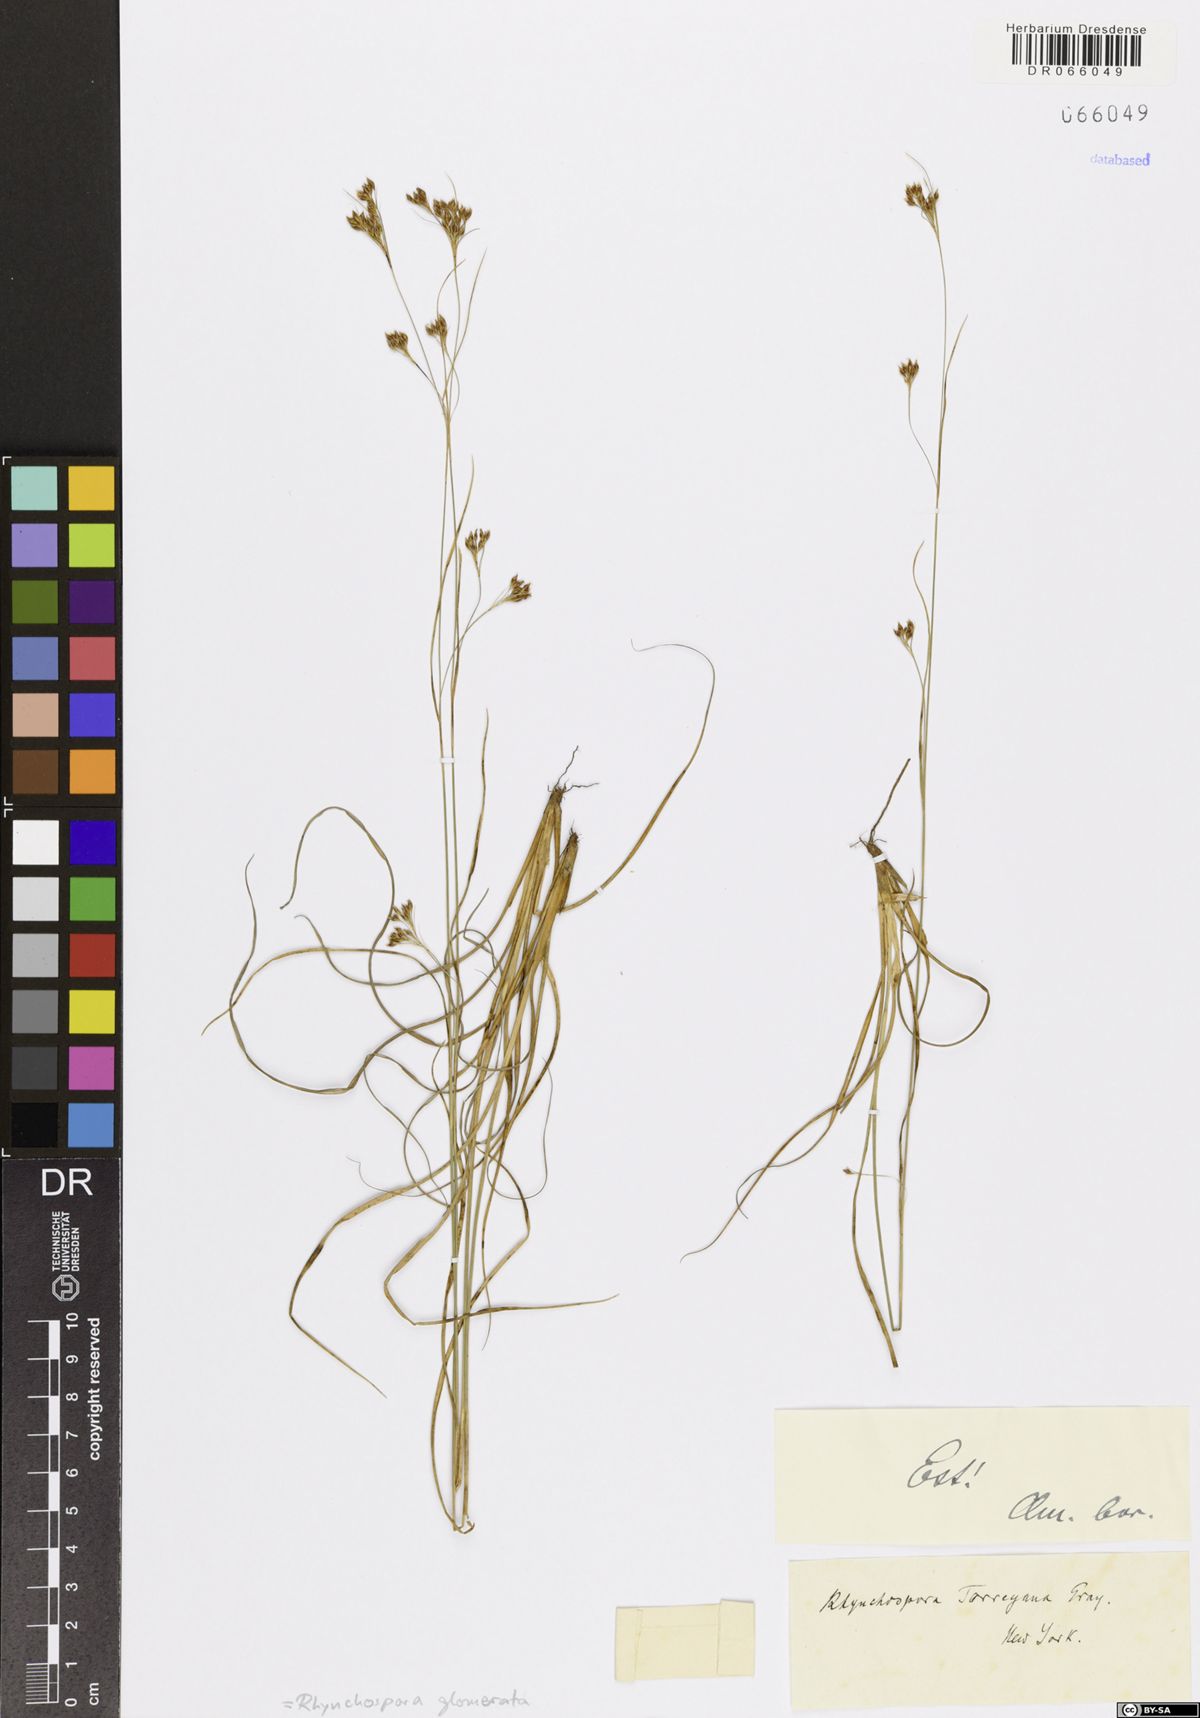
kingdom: Plantae
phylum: Tracheophyta
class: Liliopsida
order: Poales
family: Cyperaceae
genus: Rhynchospora
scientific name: Rhynchospora glomerata
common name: Cluster beak sedge
